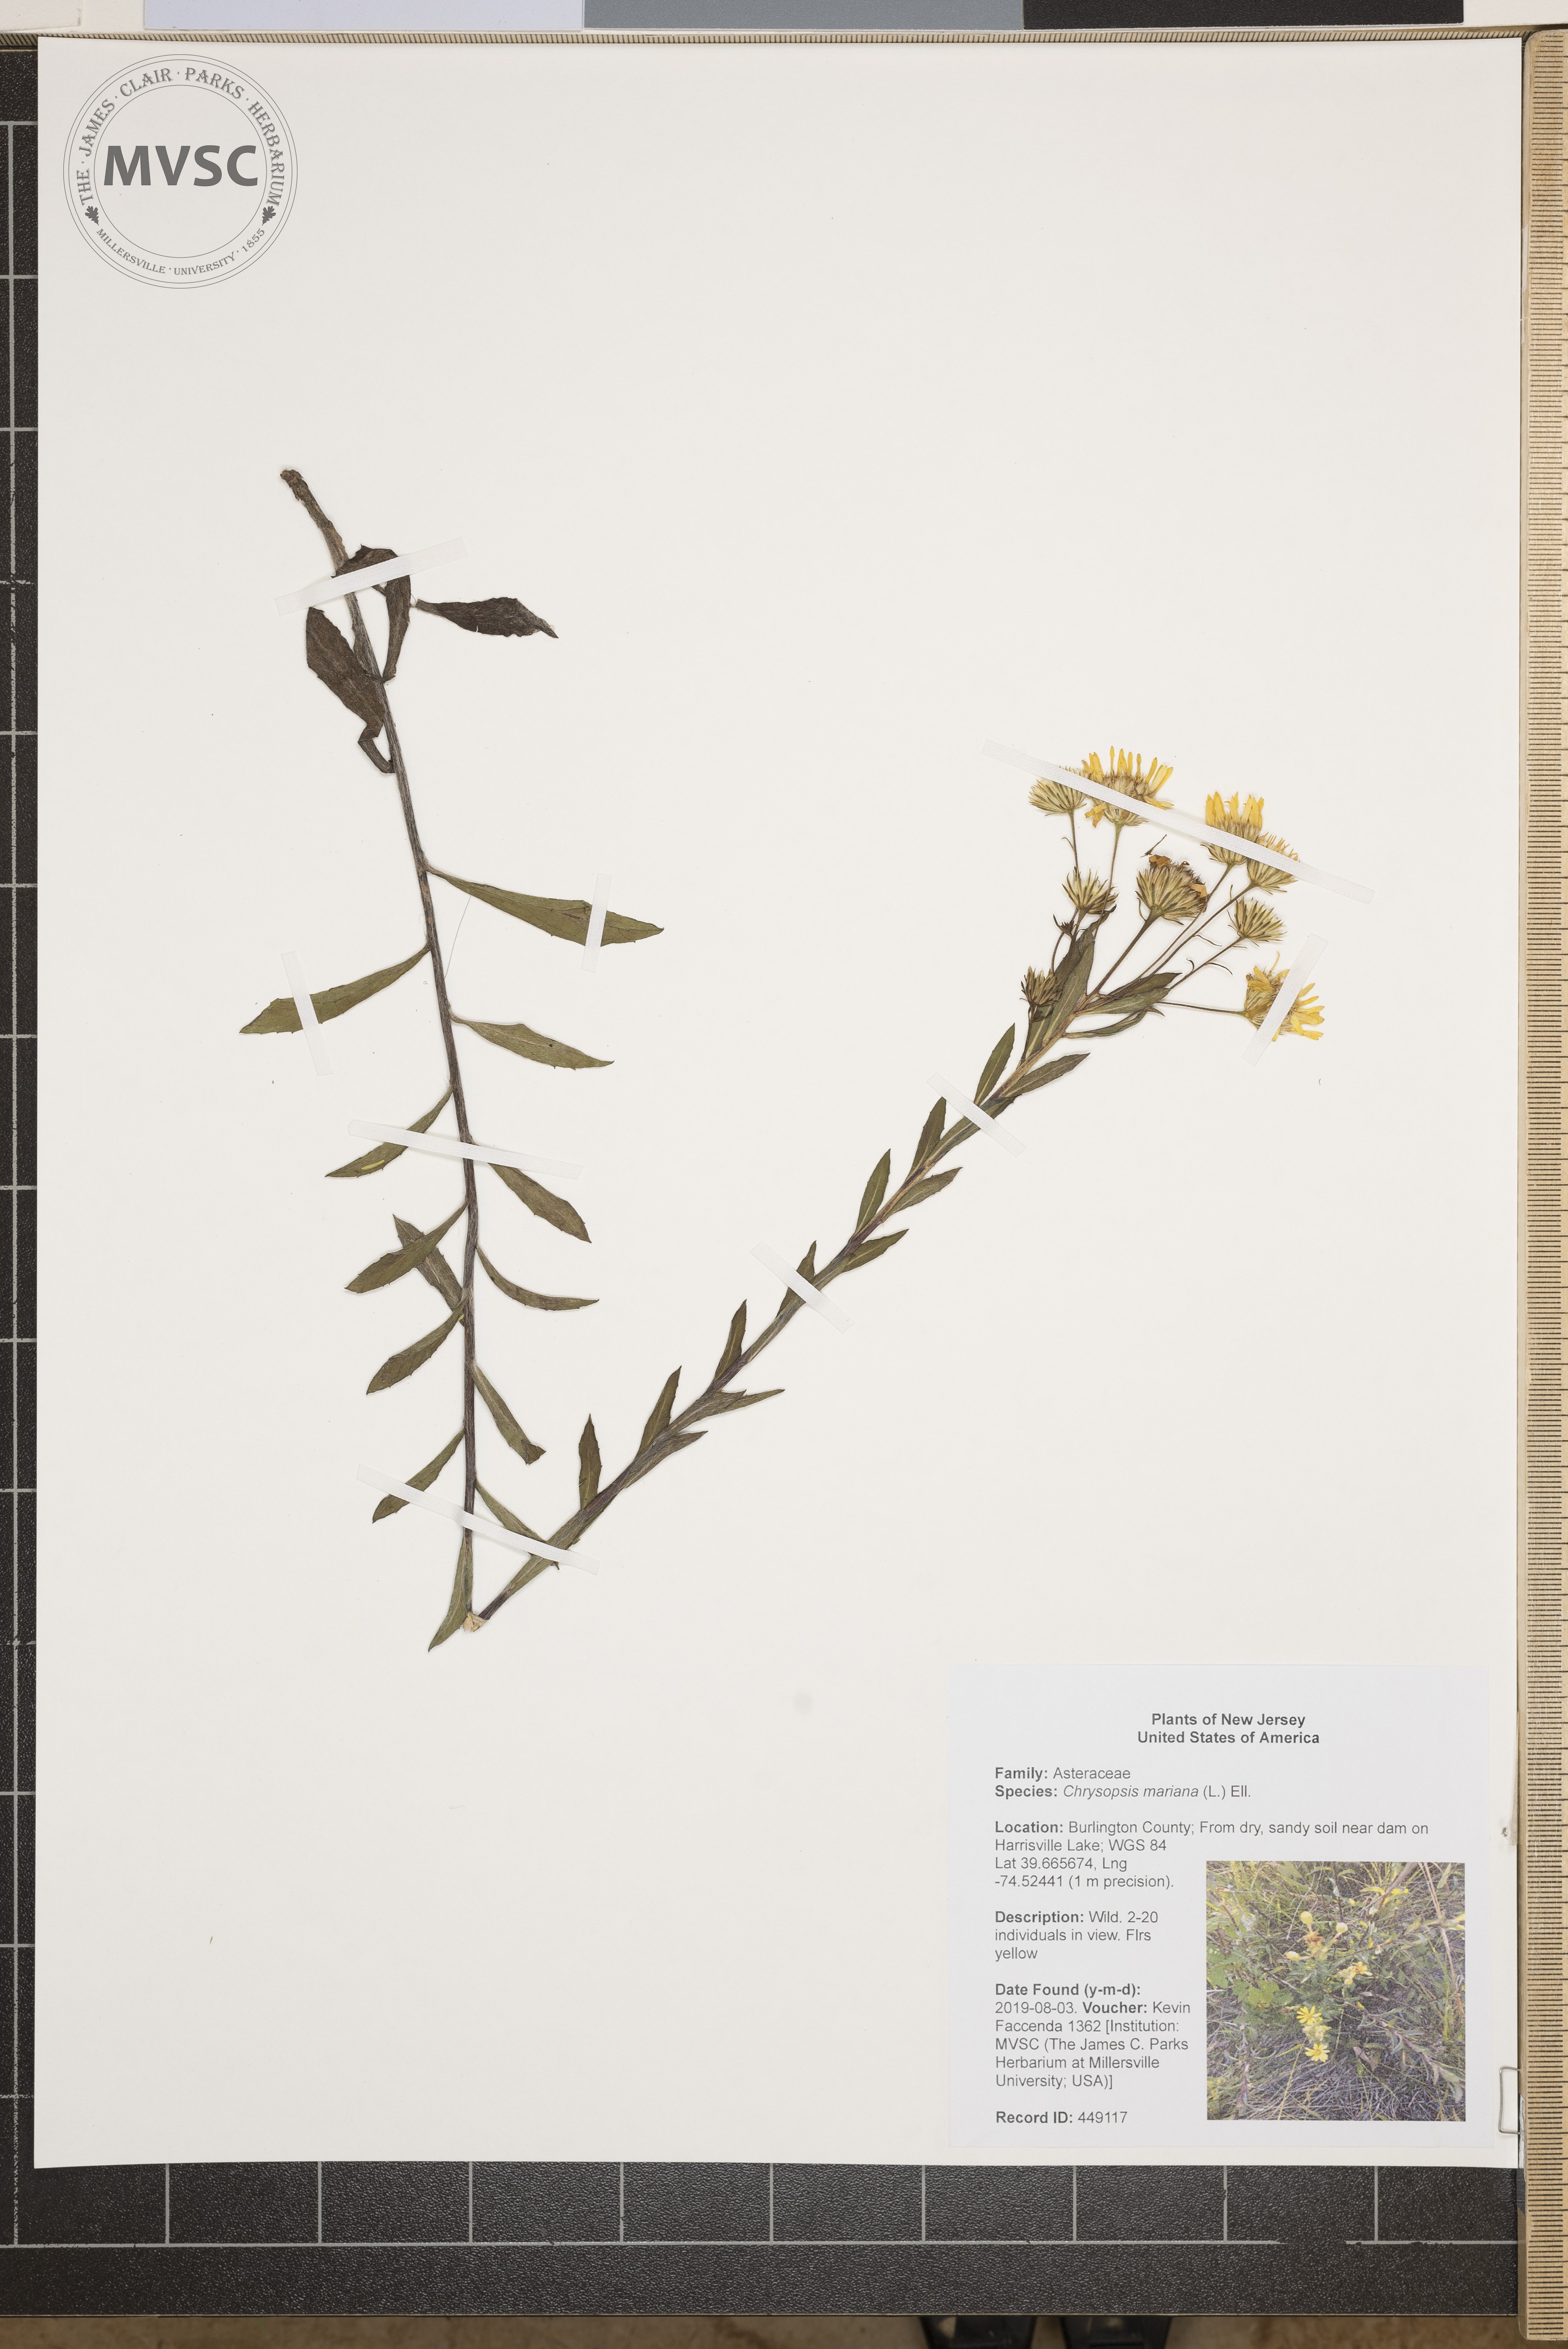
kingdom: Plantae
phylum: Tracheophyta
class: Magnoliopsida
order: Asterales
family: Asteraceae
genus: Chrysopsis
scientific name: Chrysopsis mariana
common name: Maryland golden-aster
